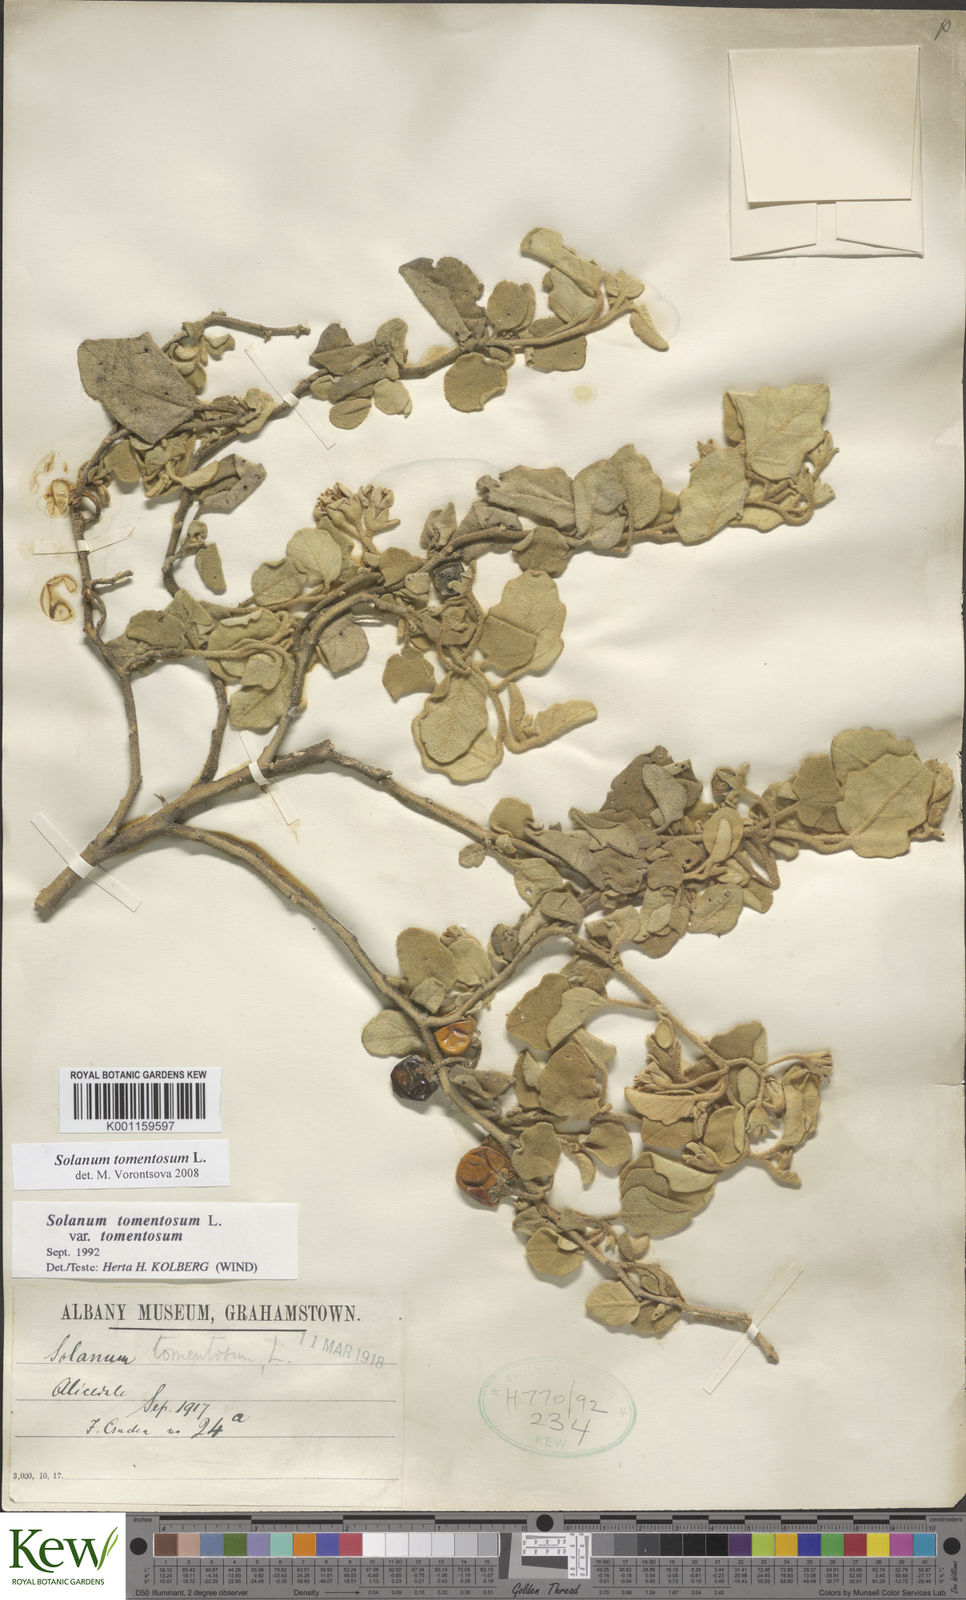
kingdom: Plantae
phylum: Tracheophyta
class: Magnoliopsida
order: Solanales
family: Solanaceae
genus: Solanum
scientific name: Solanum tomentosum
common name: Wild aubergine
